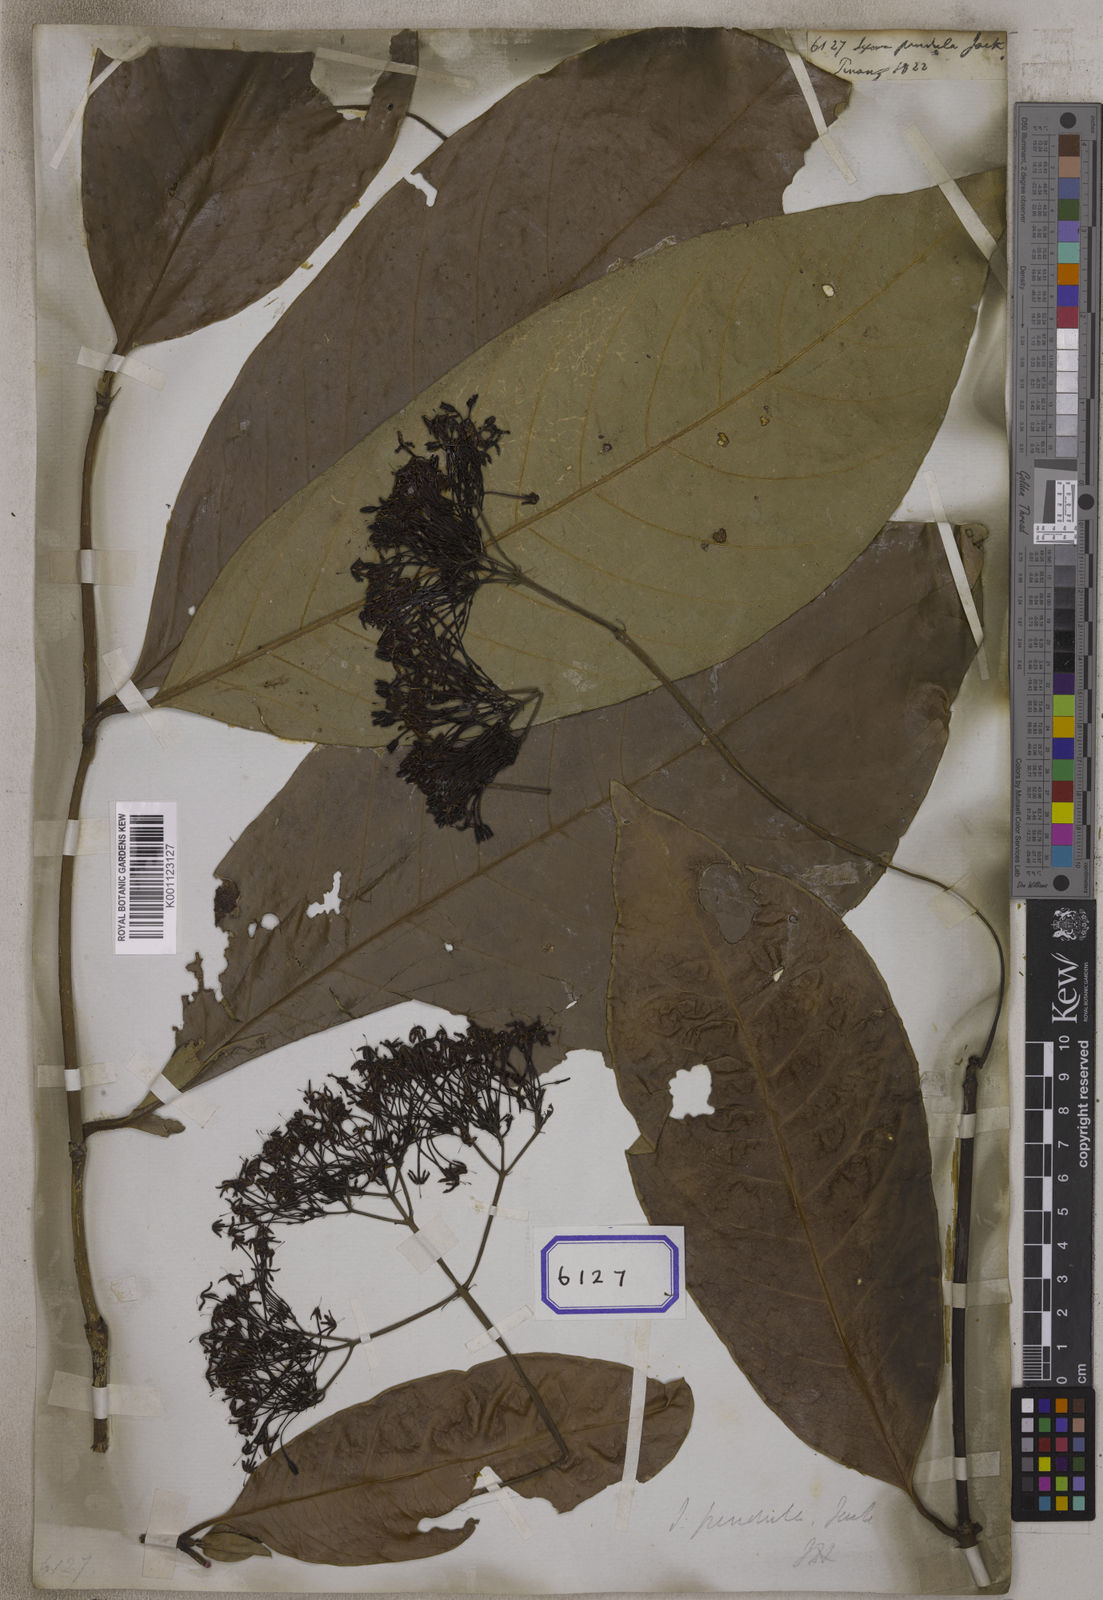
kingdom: Plantae
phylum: Tracheophyta
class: Magnoliopsida
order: Gentianales
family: Rubiaceae
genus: Ixora
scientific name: Ixora pendula
